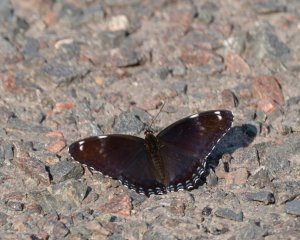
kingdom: Animalia
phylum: Arthropoda
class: Insecta
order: Lepidoptera
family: Nymphalidae
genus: Limenitis
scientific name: Limenitis astyanax
